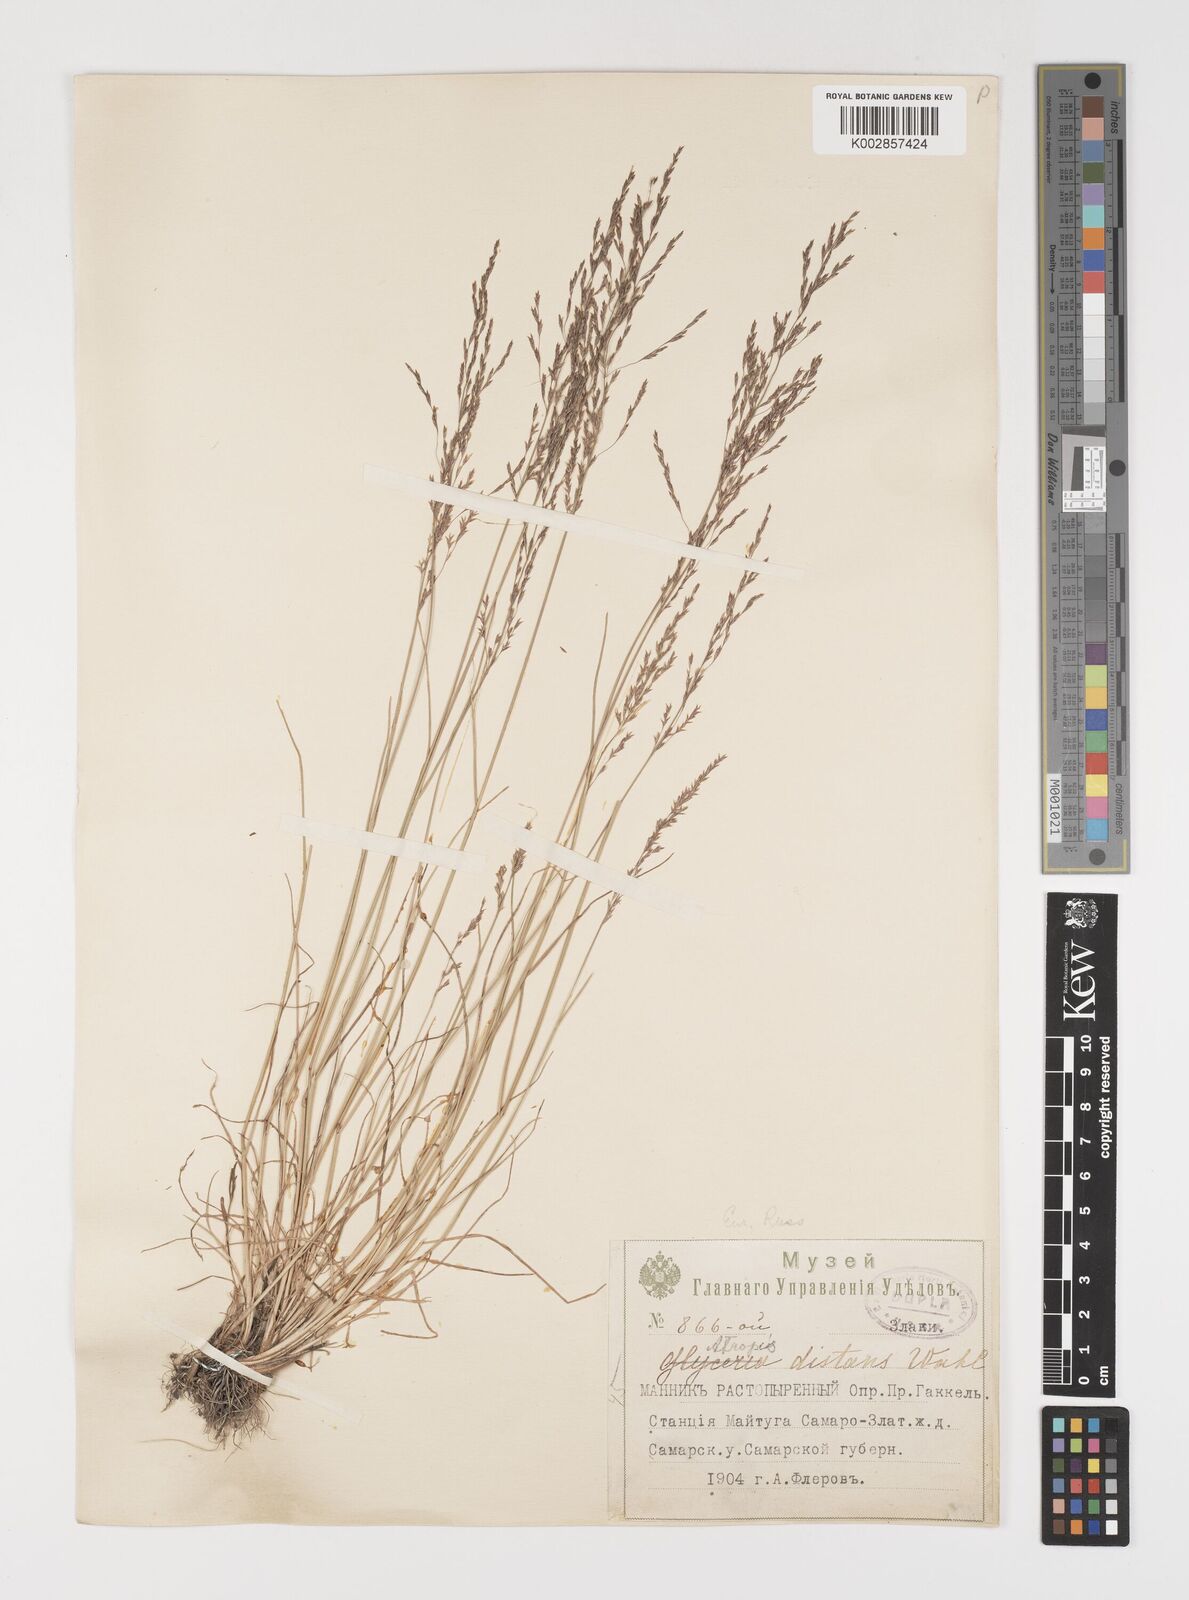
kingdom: Plantae
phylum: Tracheophyta
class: Liliopsida
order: Poales
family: Poaceae
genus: Puccinellia
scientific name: Puccinellia distans
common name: Weeping alkaligrass
